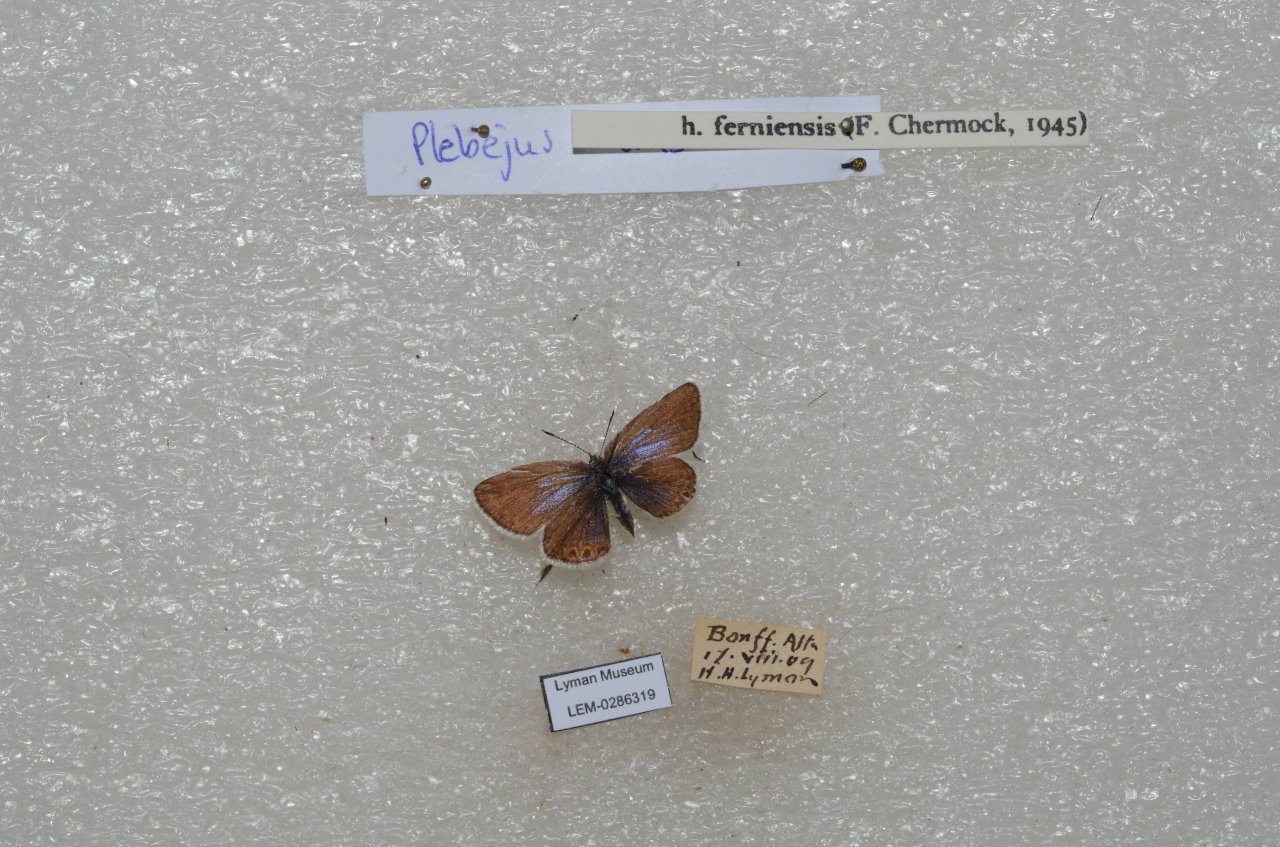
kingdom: Animalia
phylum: Arthropoda
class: Insecta
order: Lepidoptera
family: Lycaenidae
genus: Lycaeides
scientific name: Lycaeides idas
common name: Northern Blue
